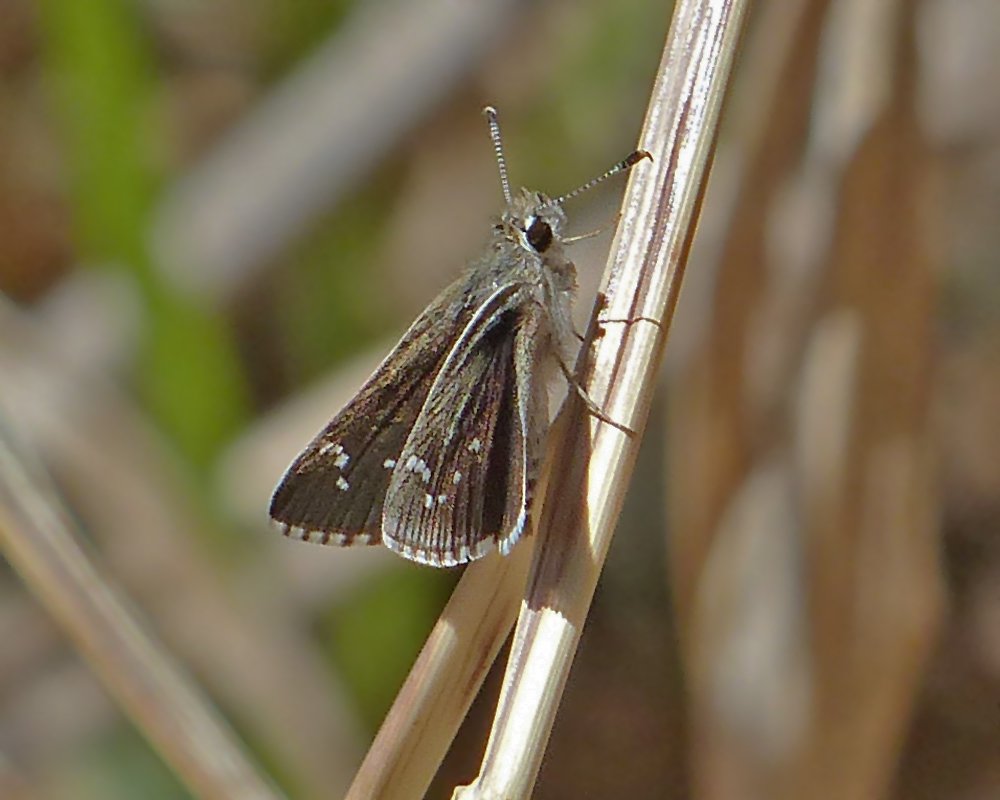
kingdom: Animalia
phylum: Arthropoda
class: Insecta
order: Lepidoptera
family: Hesperiidae
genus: Mastor
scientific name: Mastor eos
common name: Dotted Roadside-Skipper
